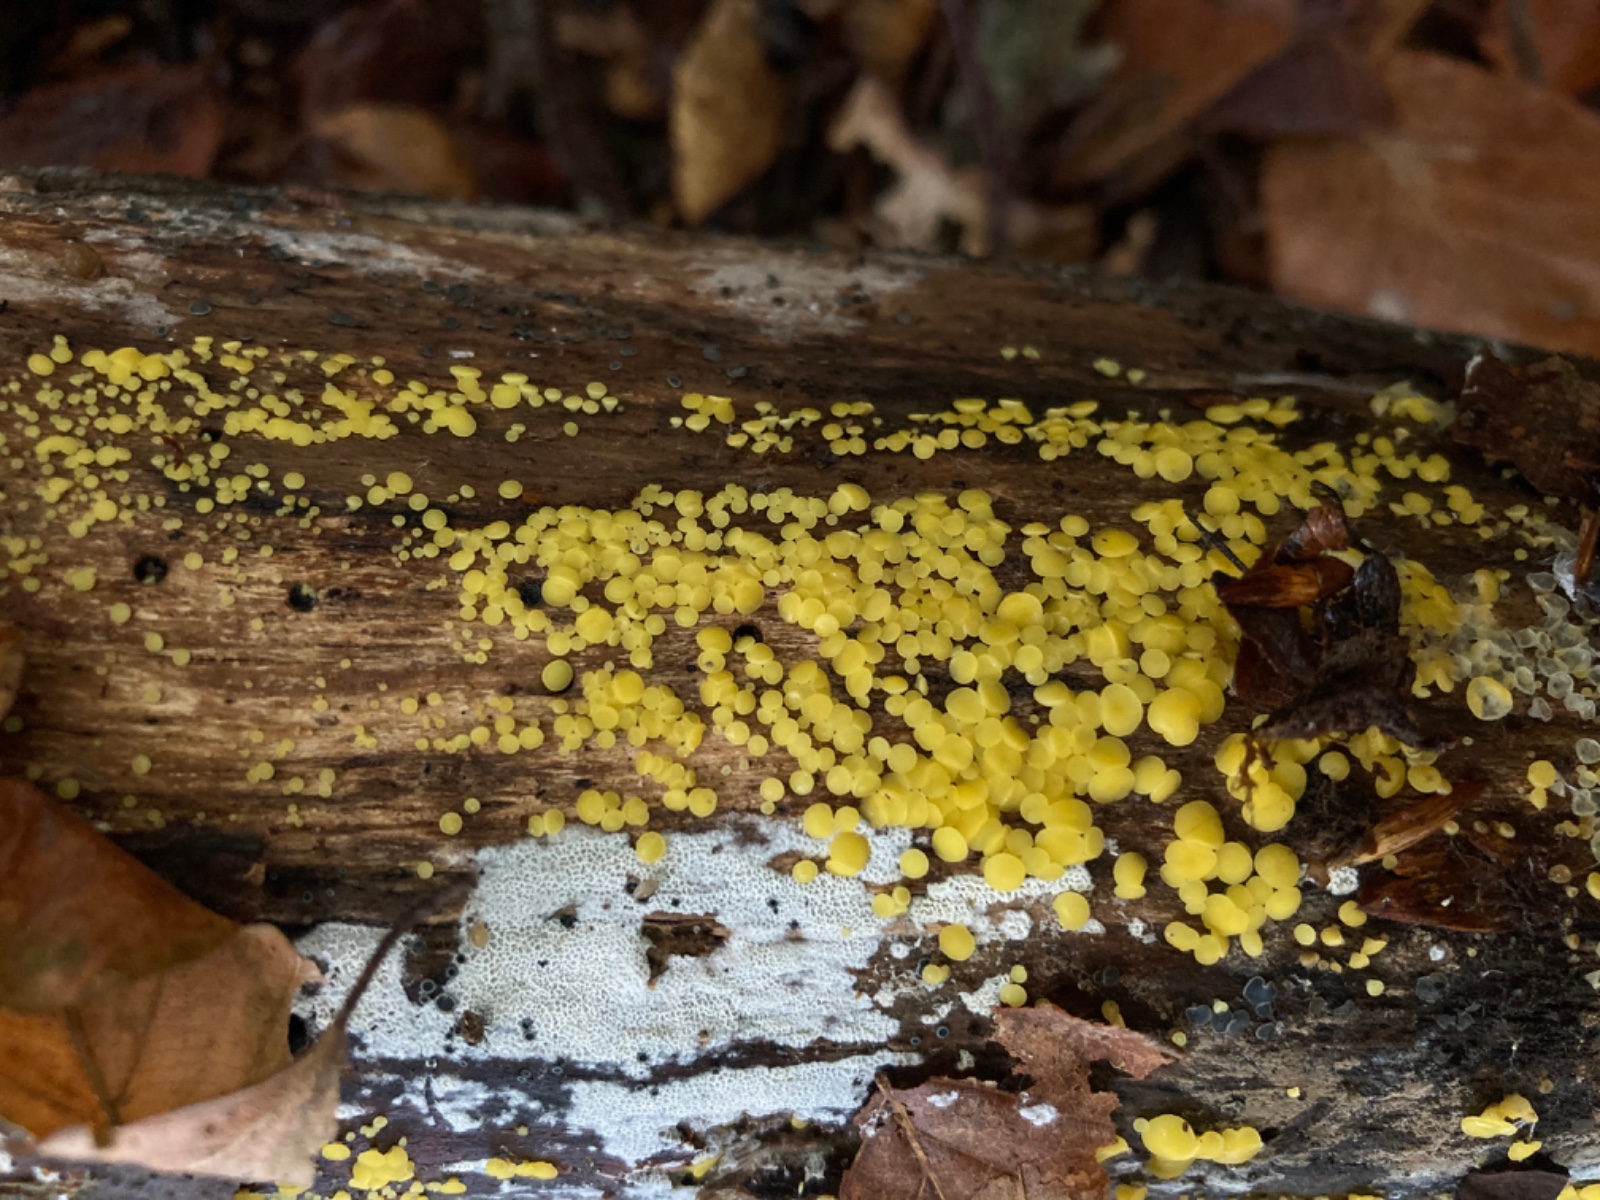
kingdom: Fungi
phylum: Ascomycota
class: Leotiomycetes
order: Helotiales
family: Pezizellaceae
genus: Calycina
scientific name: Calycina citrina
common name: almindelig gulskive
